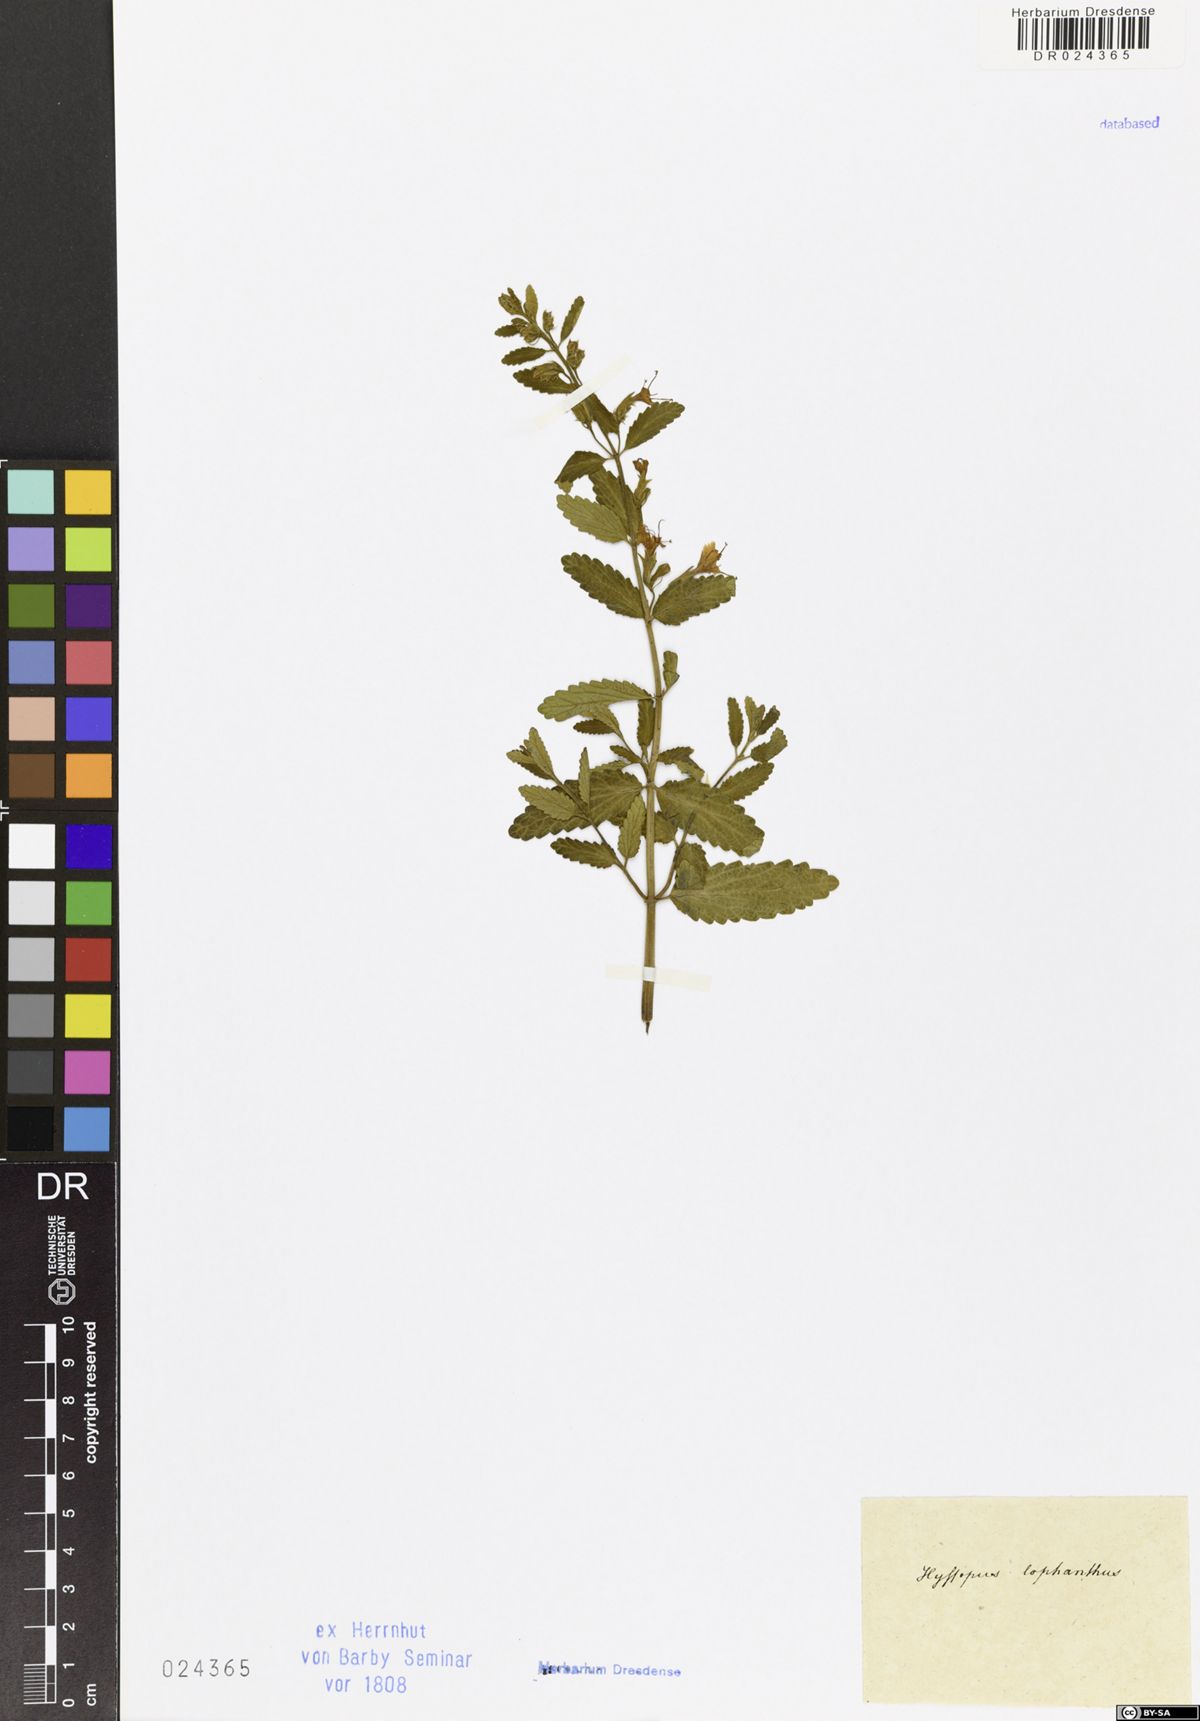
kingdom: Plantae
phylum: Tracheophyta
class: Magnoliopsida
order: Lamiales
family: Lamiaceae
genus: Nepeta
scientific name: Nepeta lophanthus
